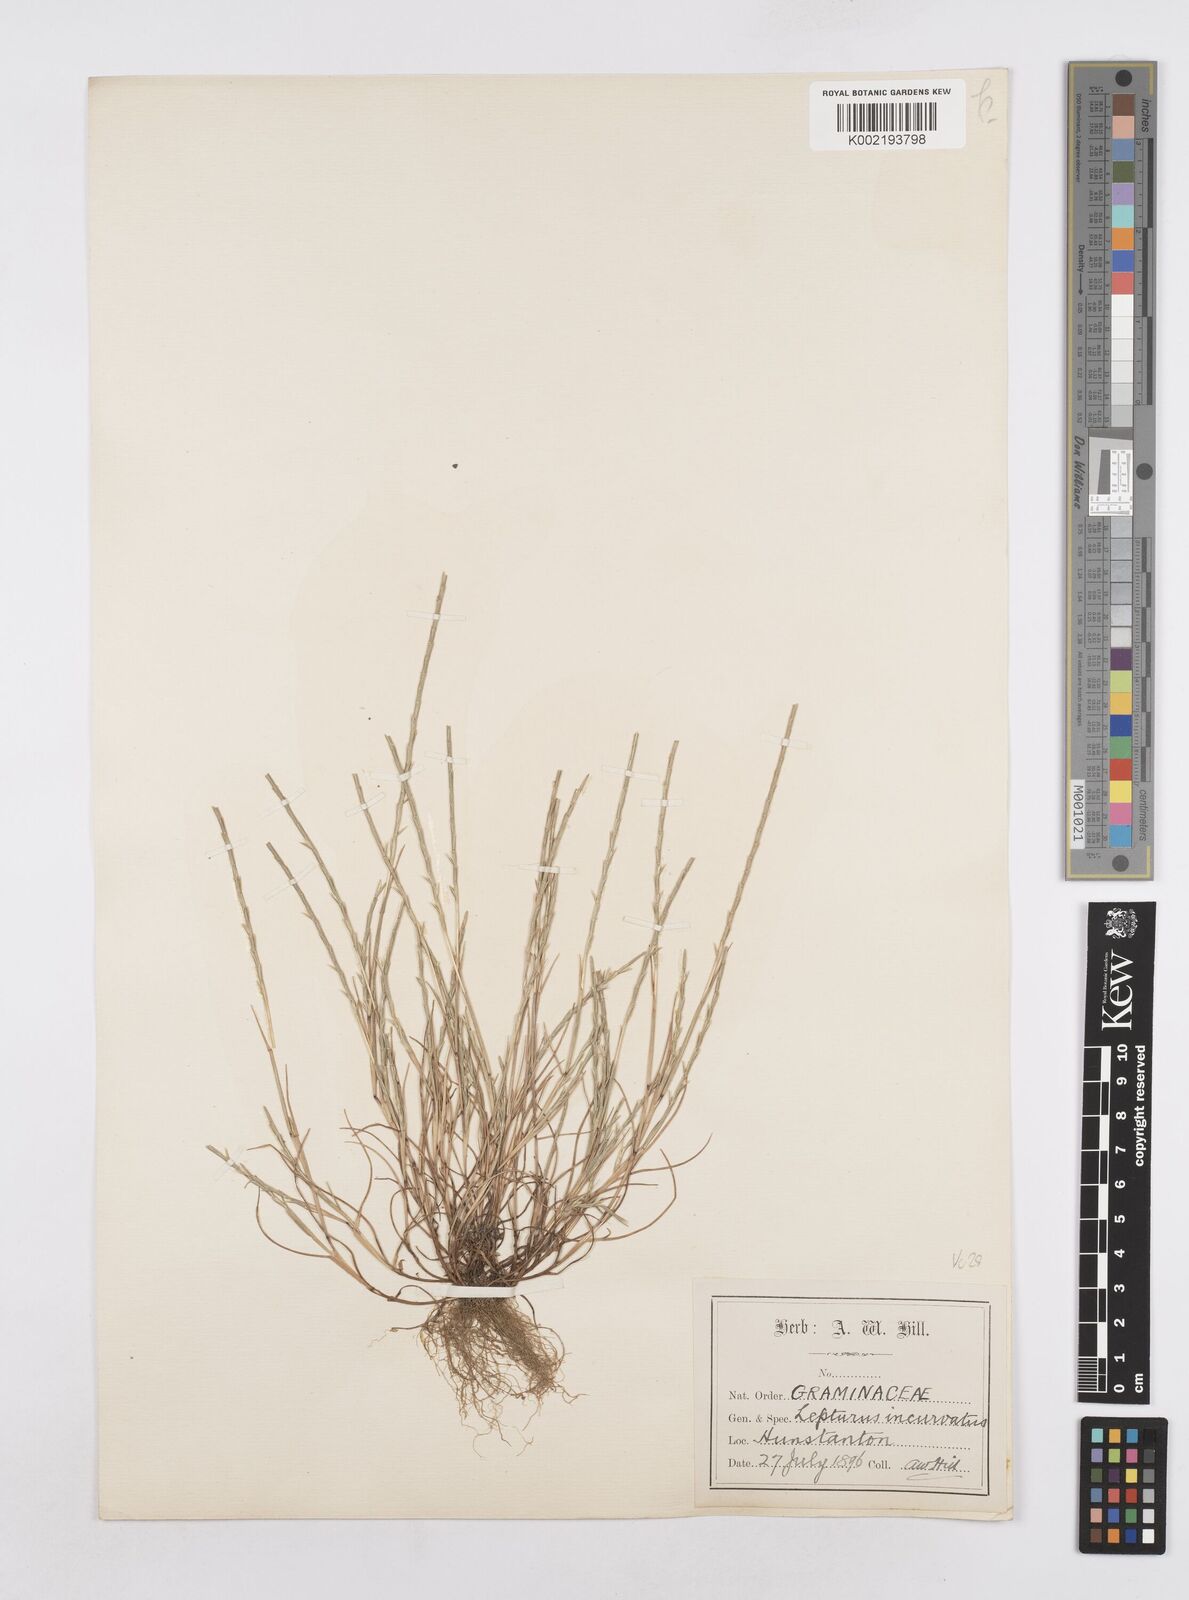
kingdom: Plantae
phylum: Tracheophyta
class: Liliopsida
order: Poales
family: Poaceae
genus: Parapholis
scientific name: Parapholis
